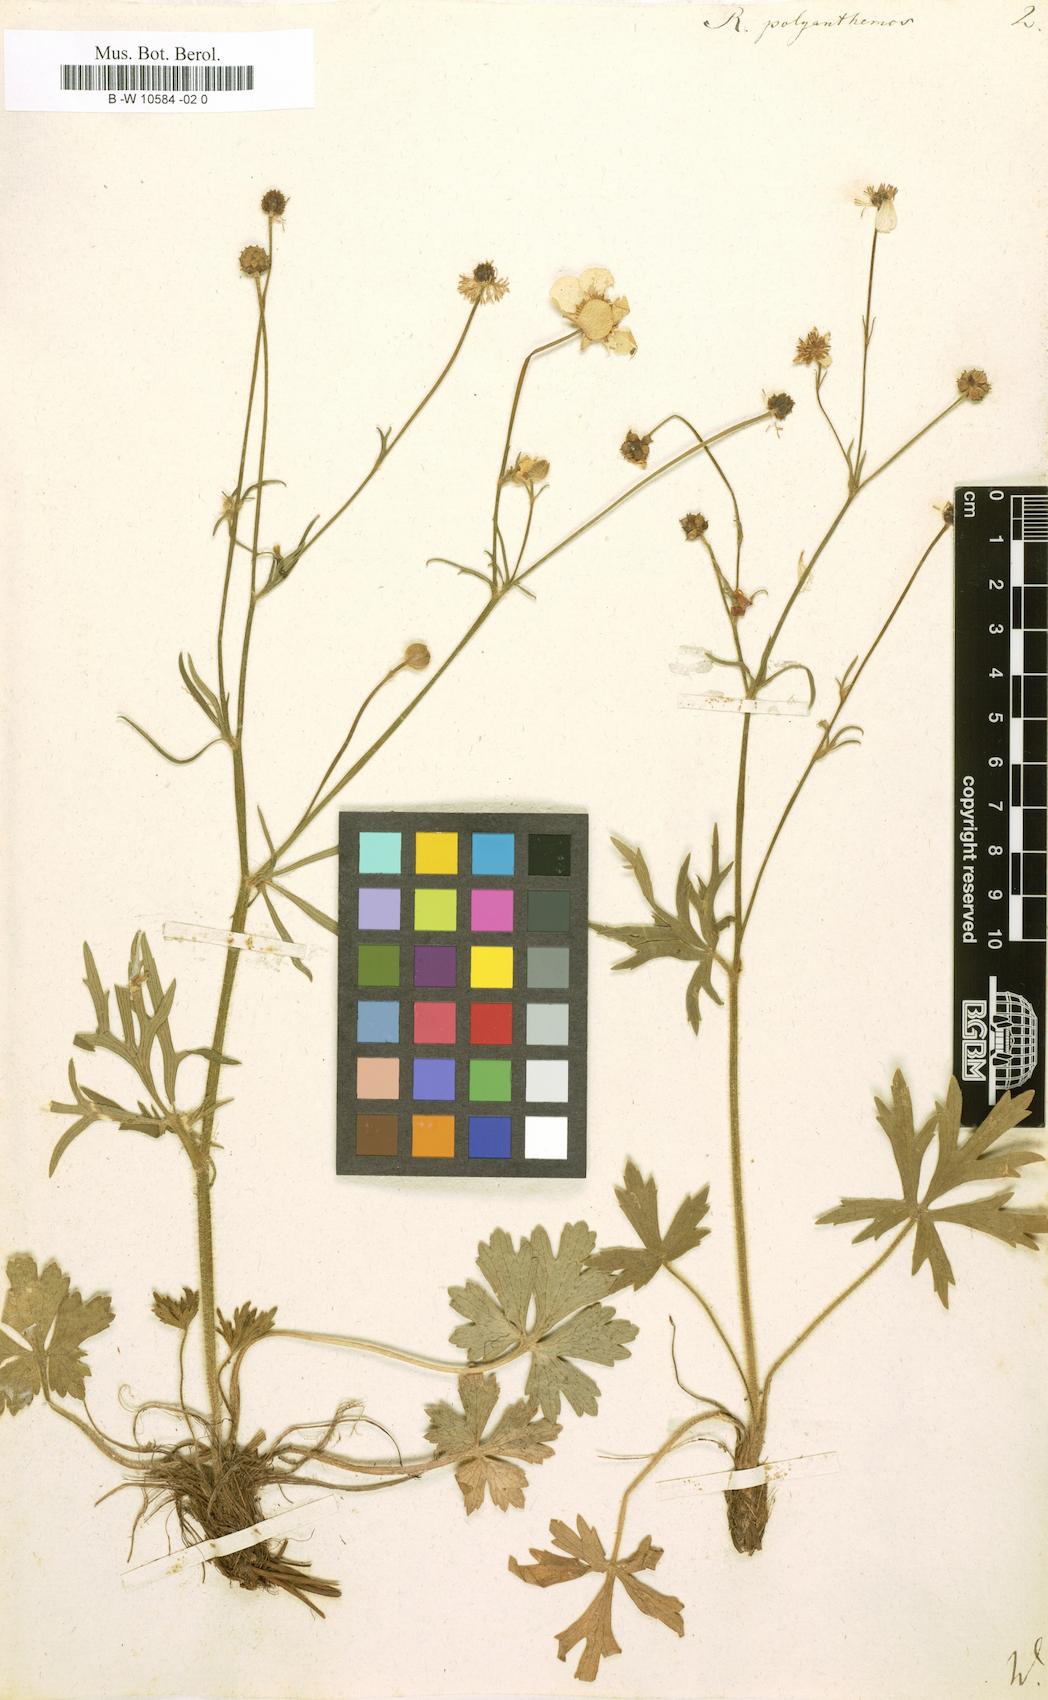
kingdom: Plantae
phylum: Tracheophyta
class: Magnoliopsida
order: Ranunculales
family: Ranunculaceae
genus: Ranunculus
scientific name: Ranunculus polyanthemos
